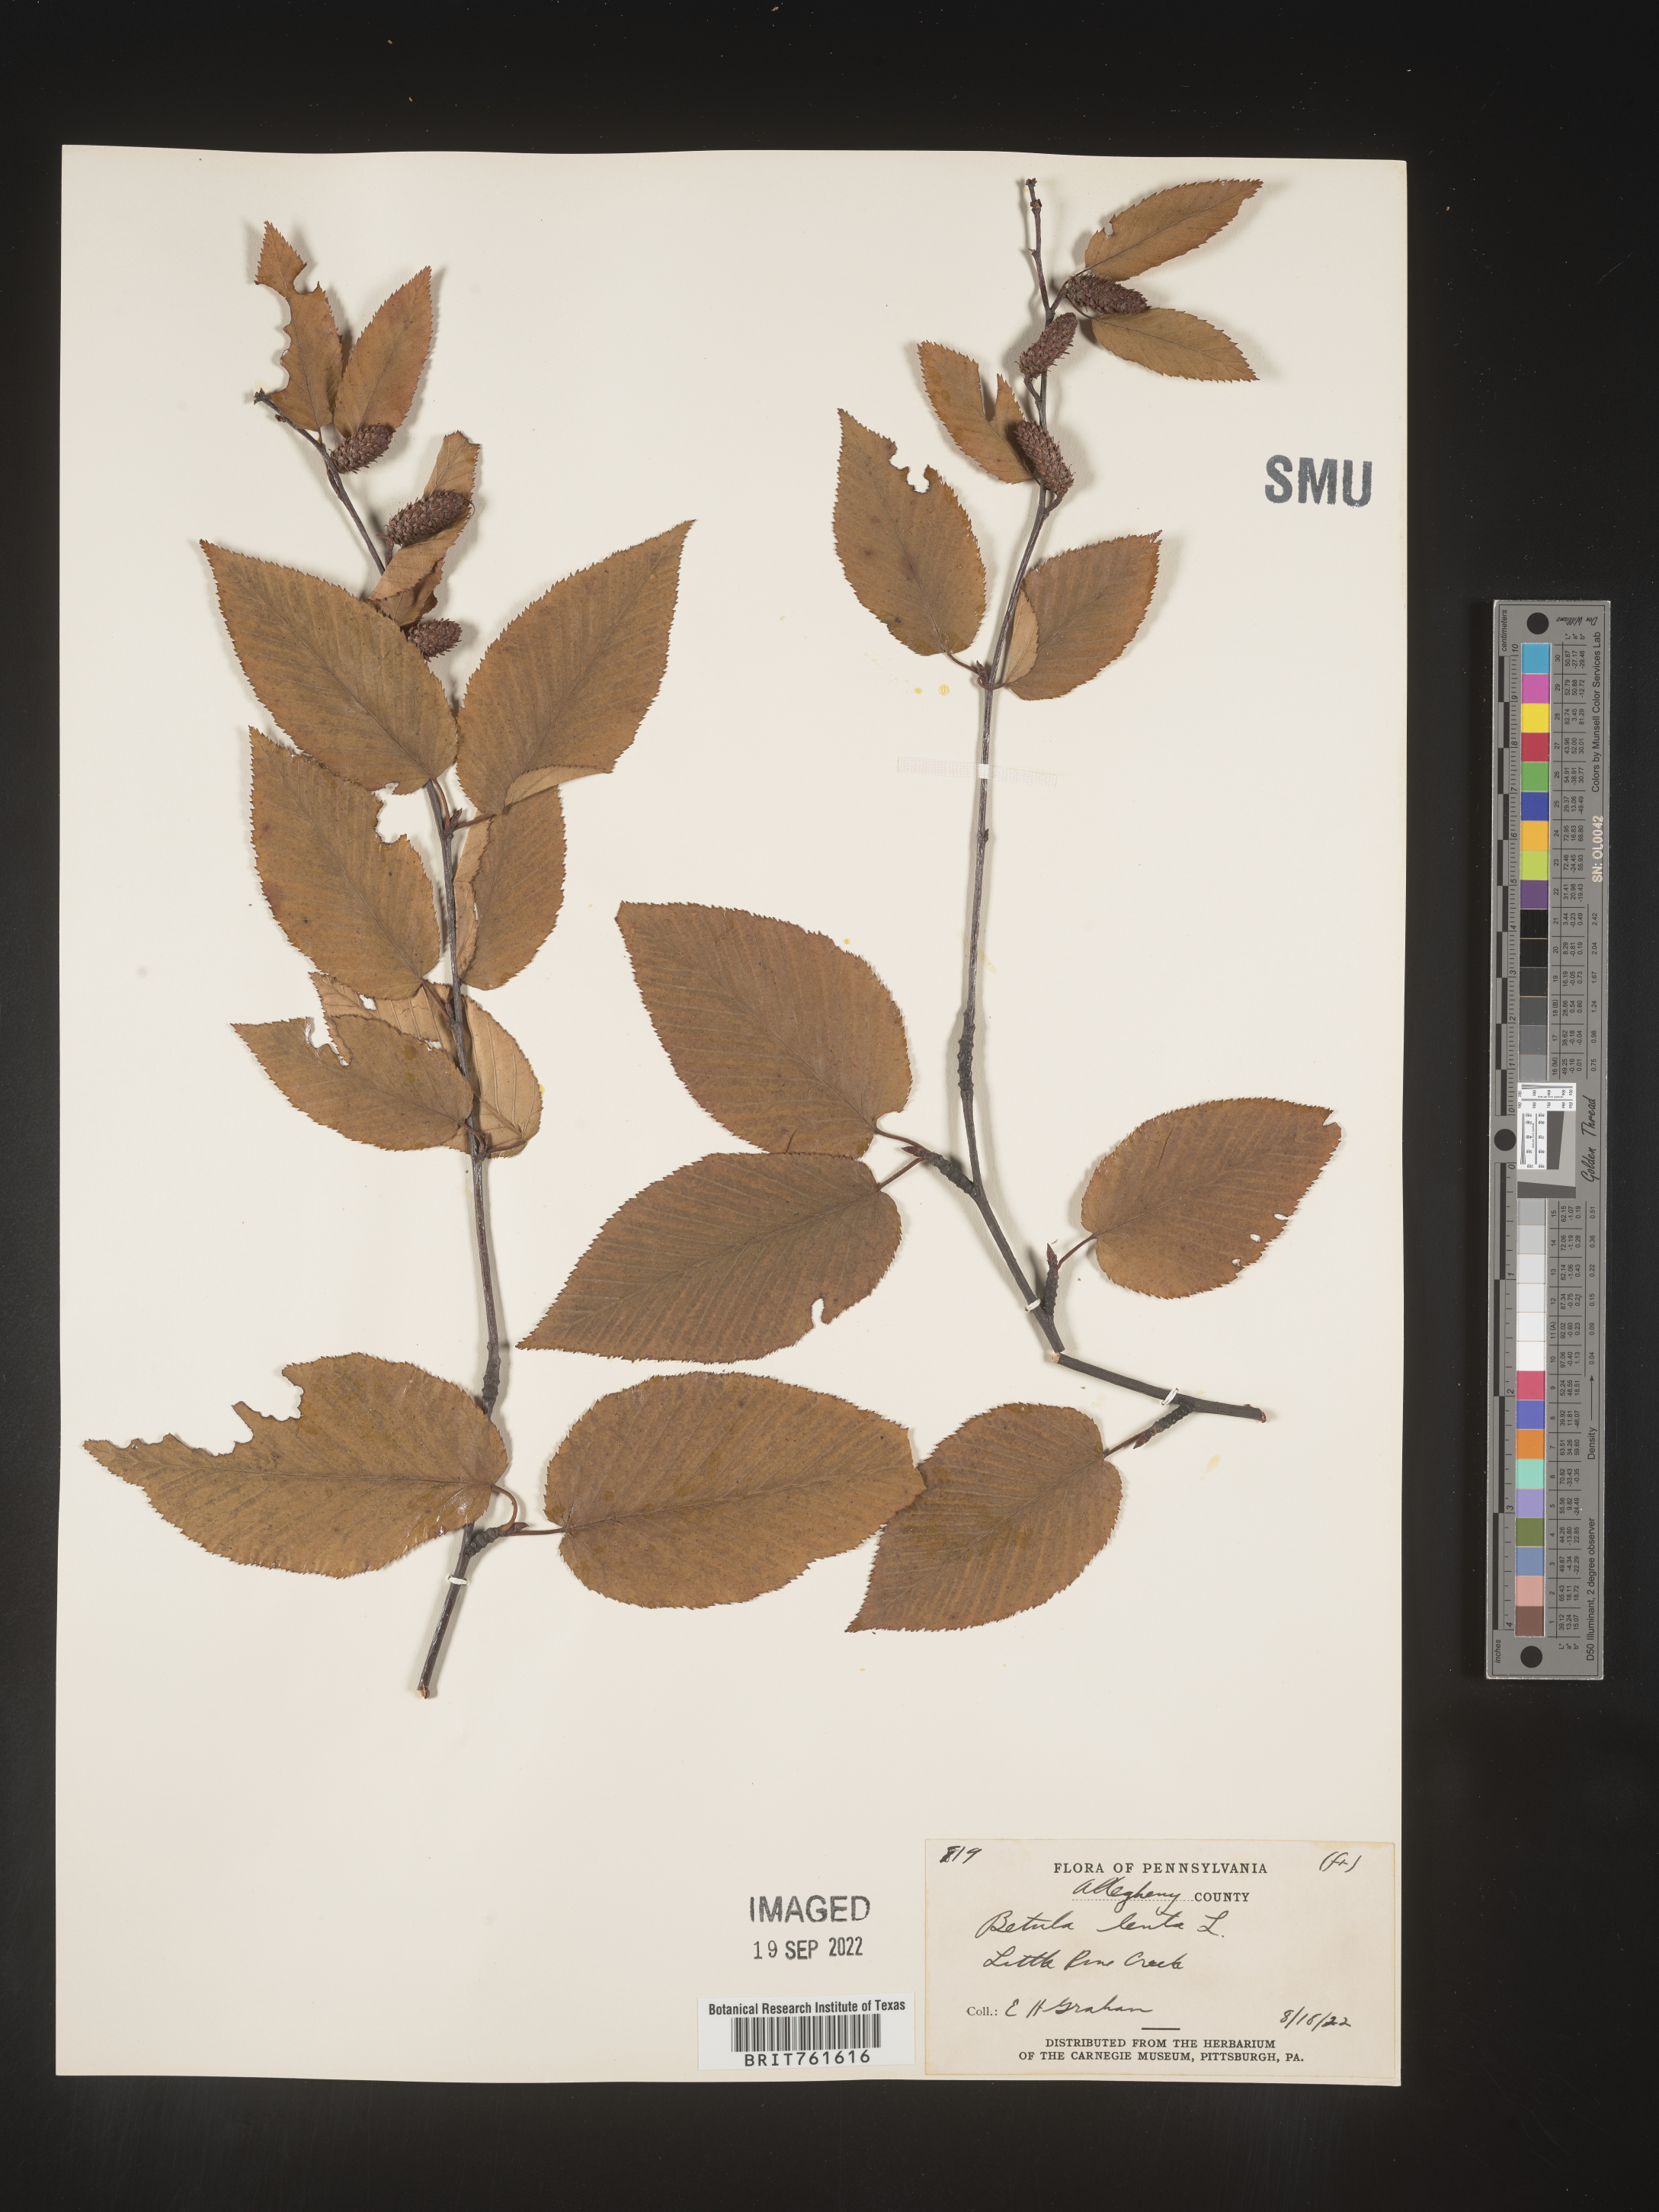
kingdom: Plantae
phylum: Tracheophyta
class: Magnoliopsida
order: Fagales
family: Betulaceae
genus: Betula
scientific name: Betula lenta
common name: Black birch
